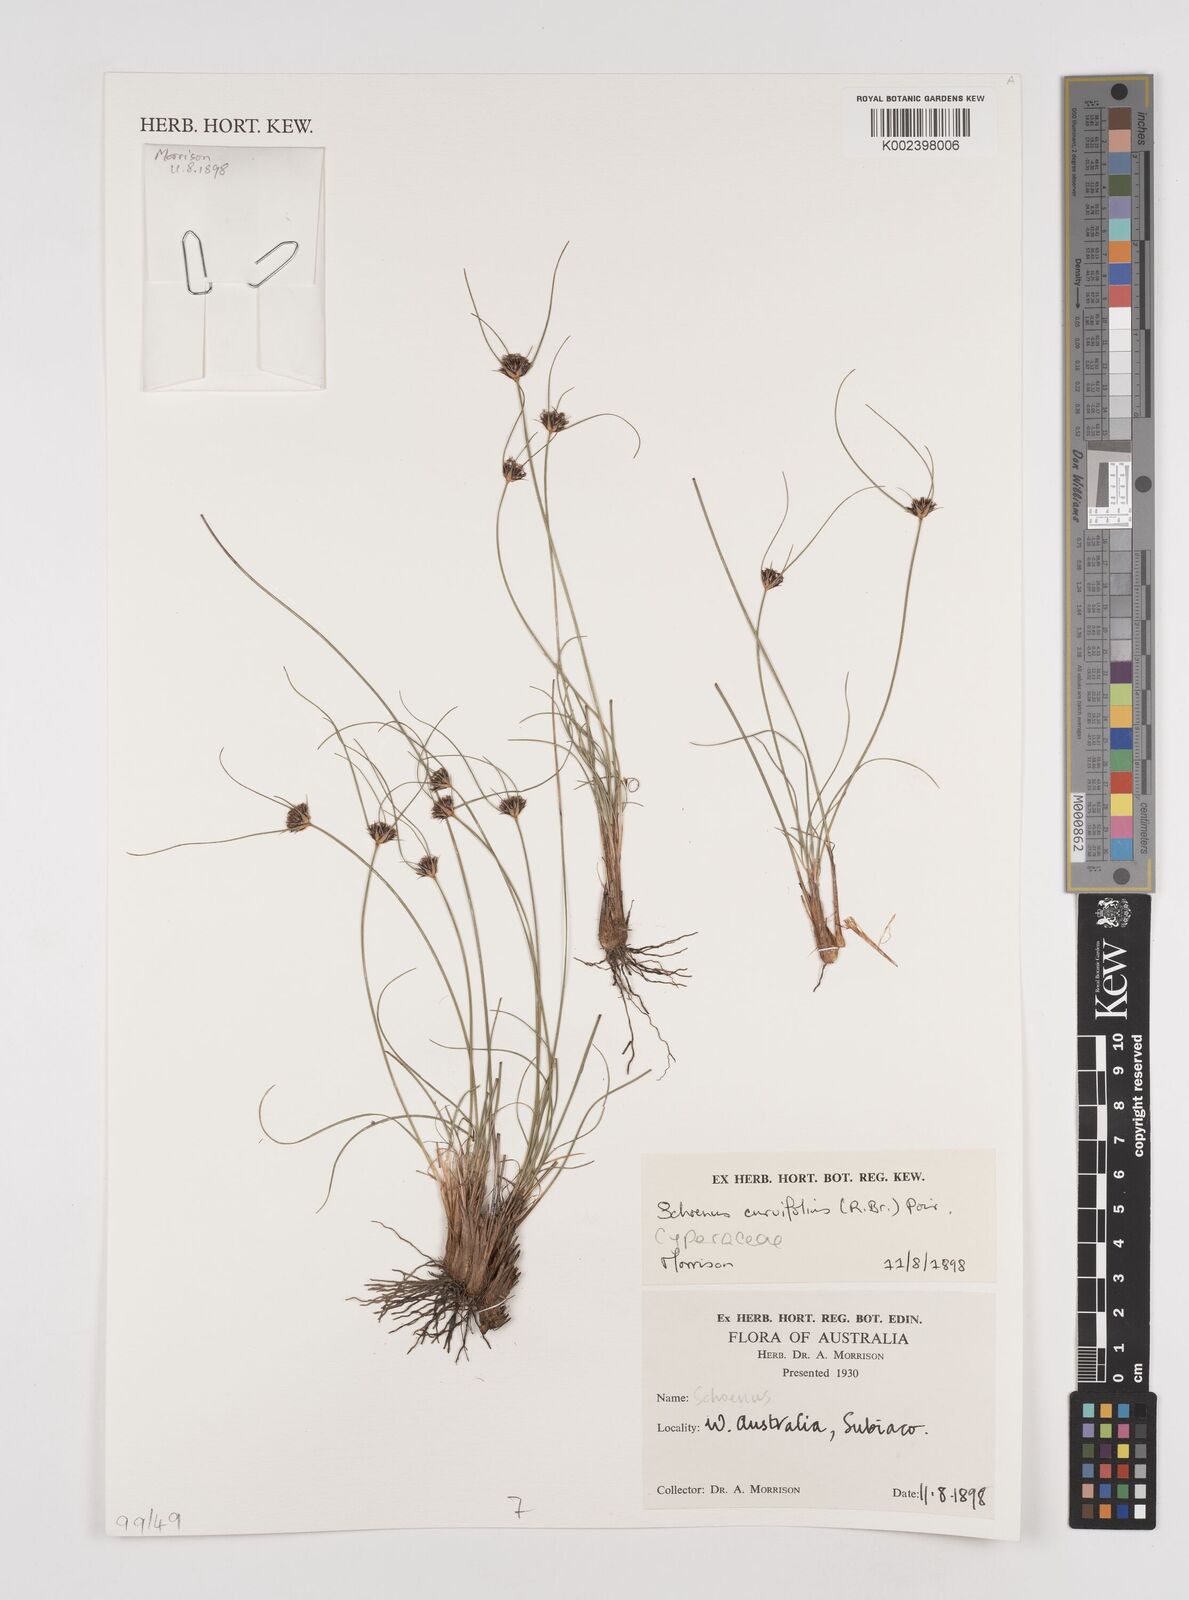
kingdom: Plantae
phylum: Tracheophyta
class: Liliopsida
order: Poales
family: Cyperaceae
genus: Schoenus
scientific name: Schoenus curvifolius
